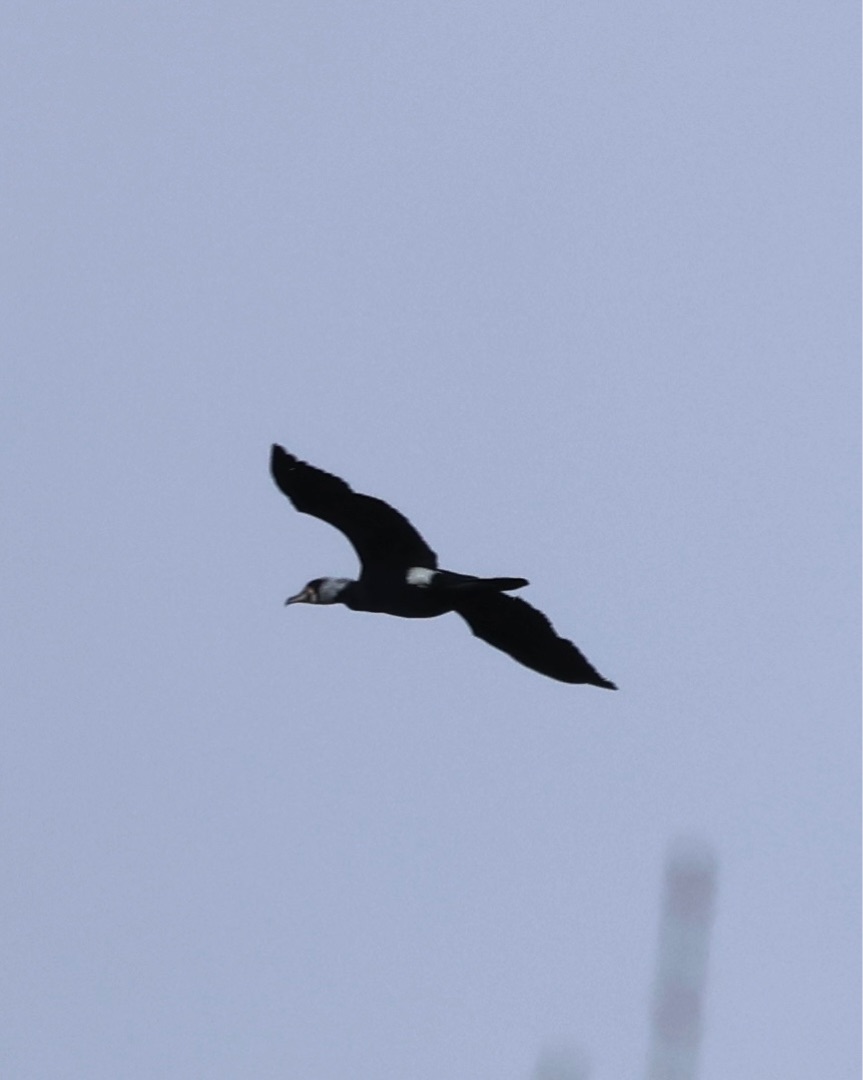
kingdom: Animalia
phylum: Chordata
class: Aves
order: Suliformes
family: Phalacrocoracidae
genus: Phalacrocorax
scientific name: Phalacrocorax carbo
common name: Skarv
